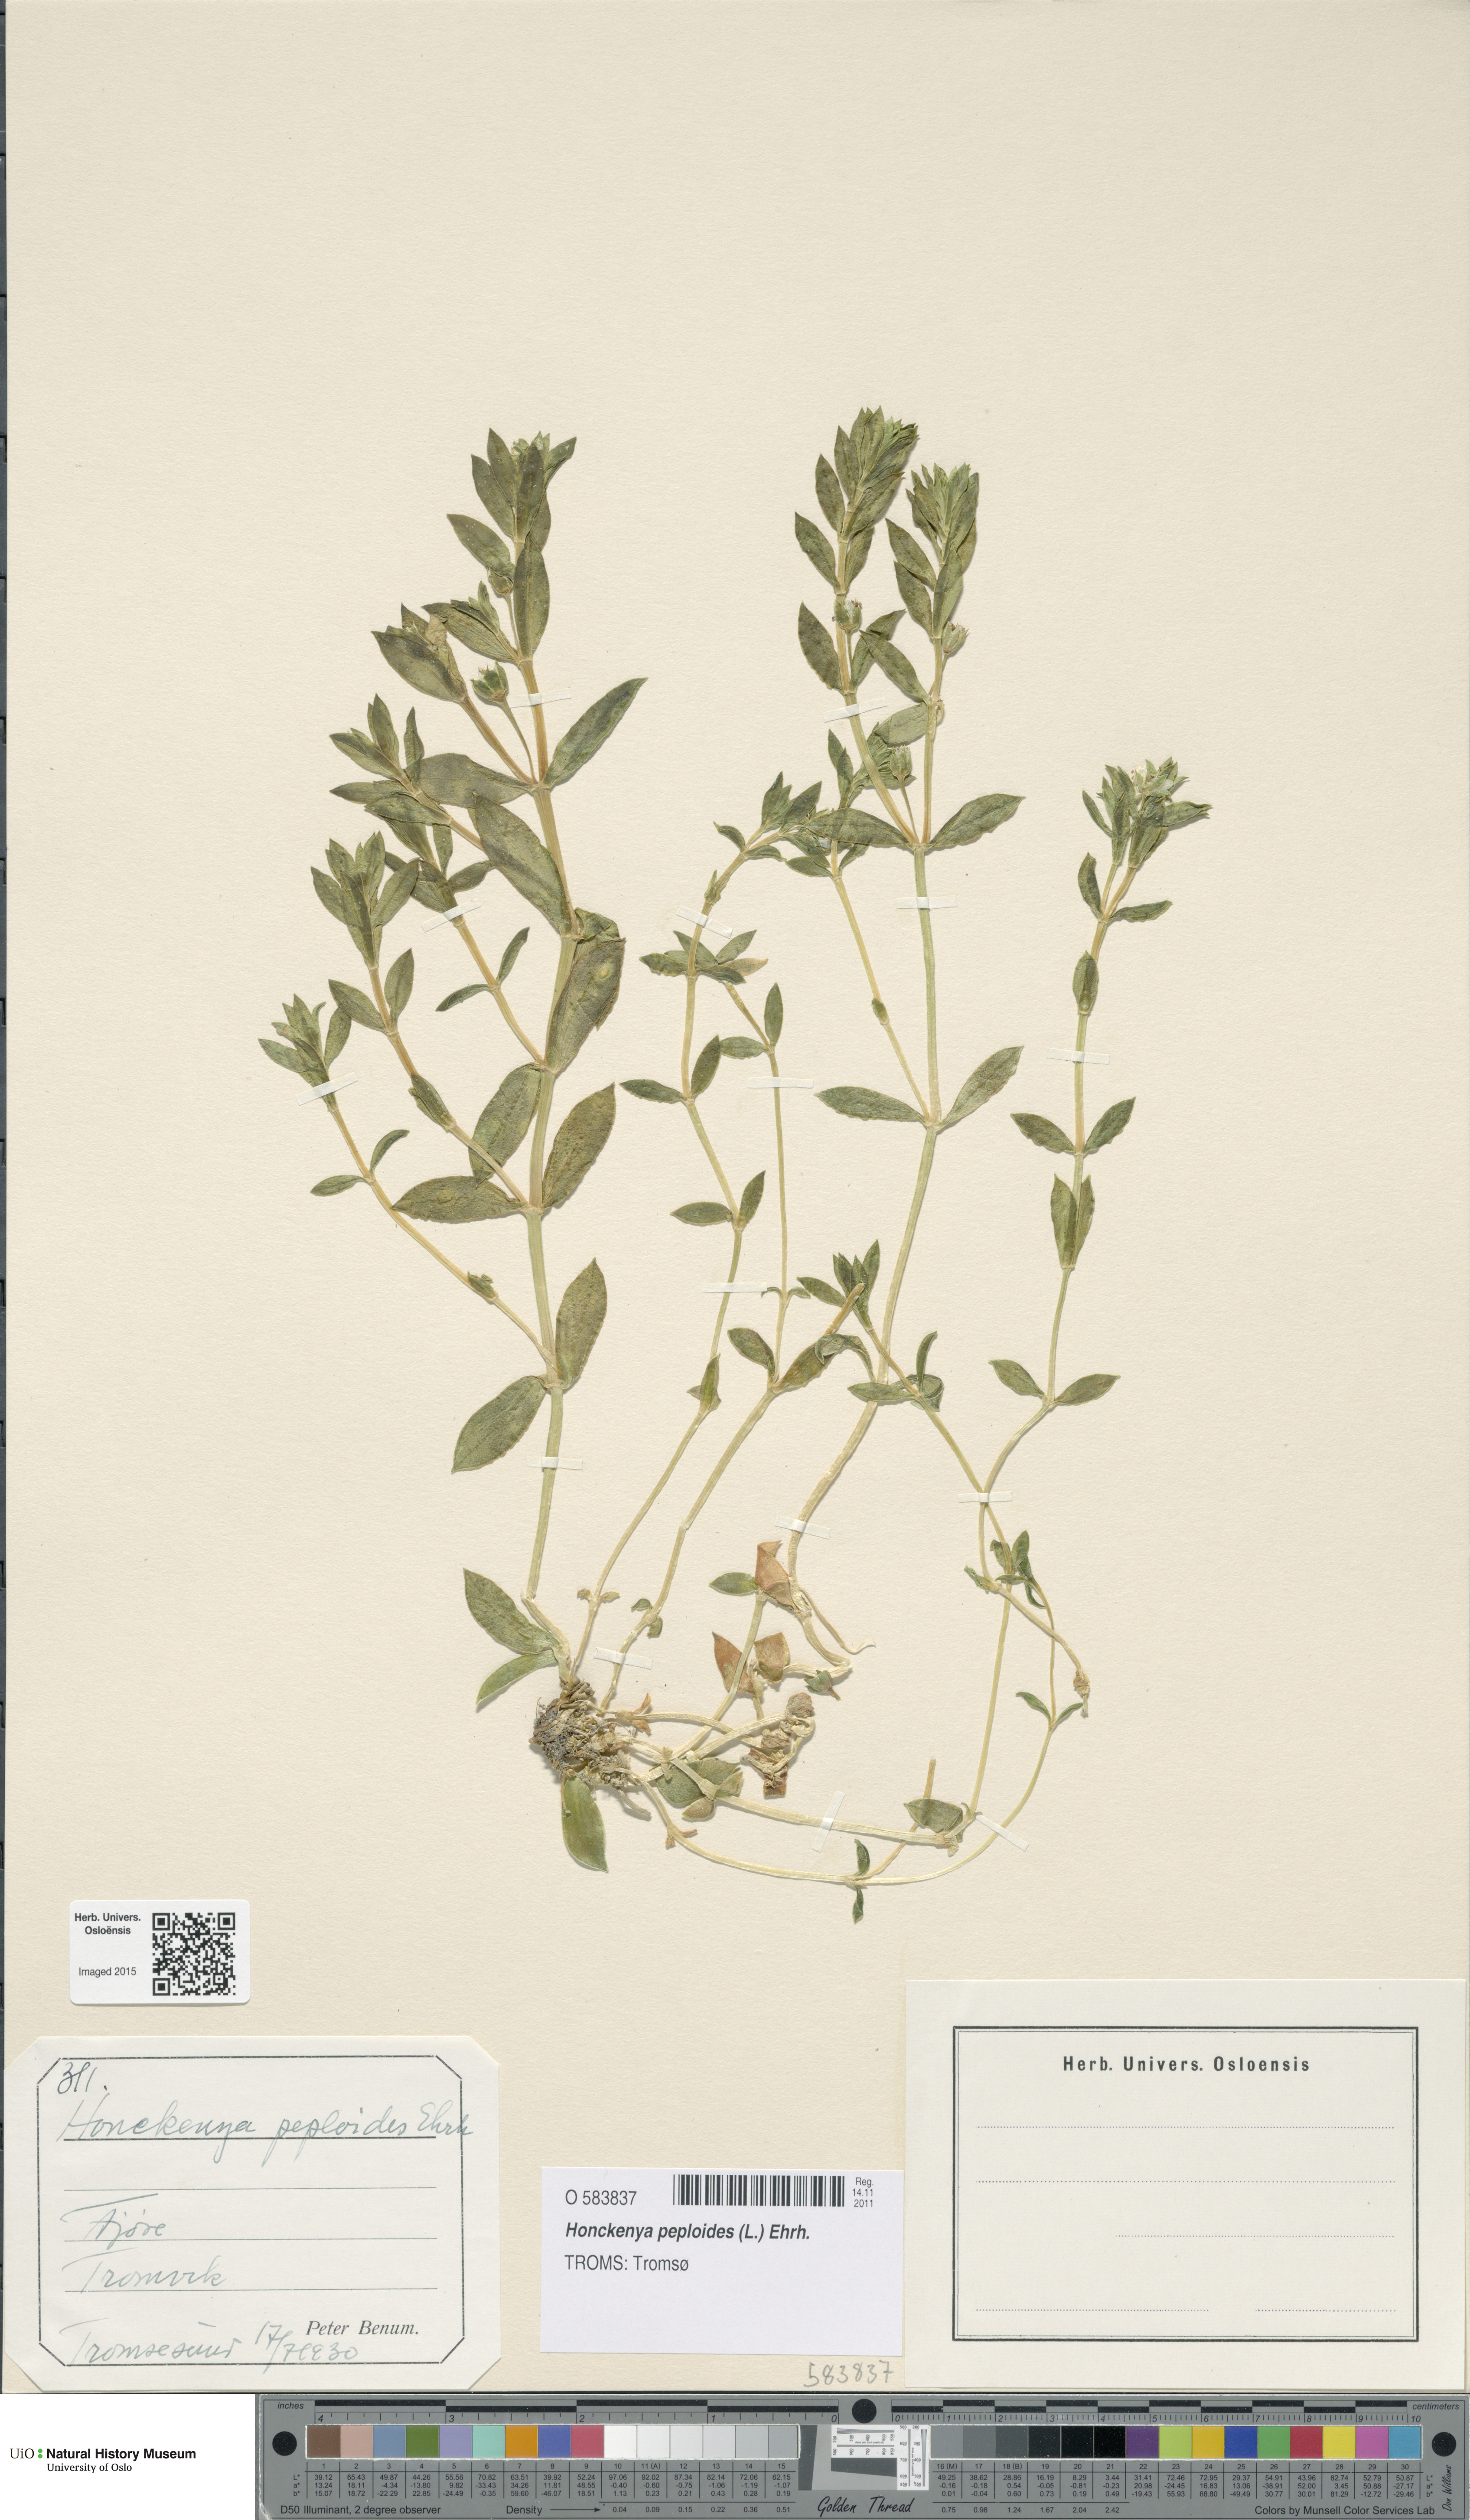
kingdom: Plantae
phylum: Tracheophyta
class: Magnoliopsida
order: Caryophyllales
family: Caryophyllaceae
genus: Honckenya
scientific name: Honckenya peploides
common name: Sea sandwort
